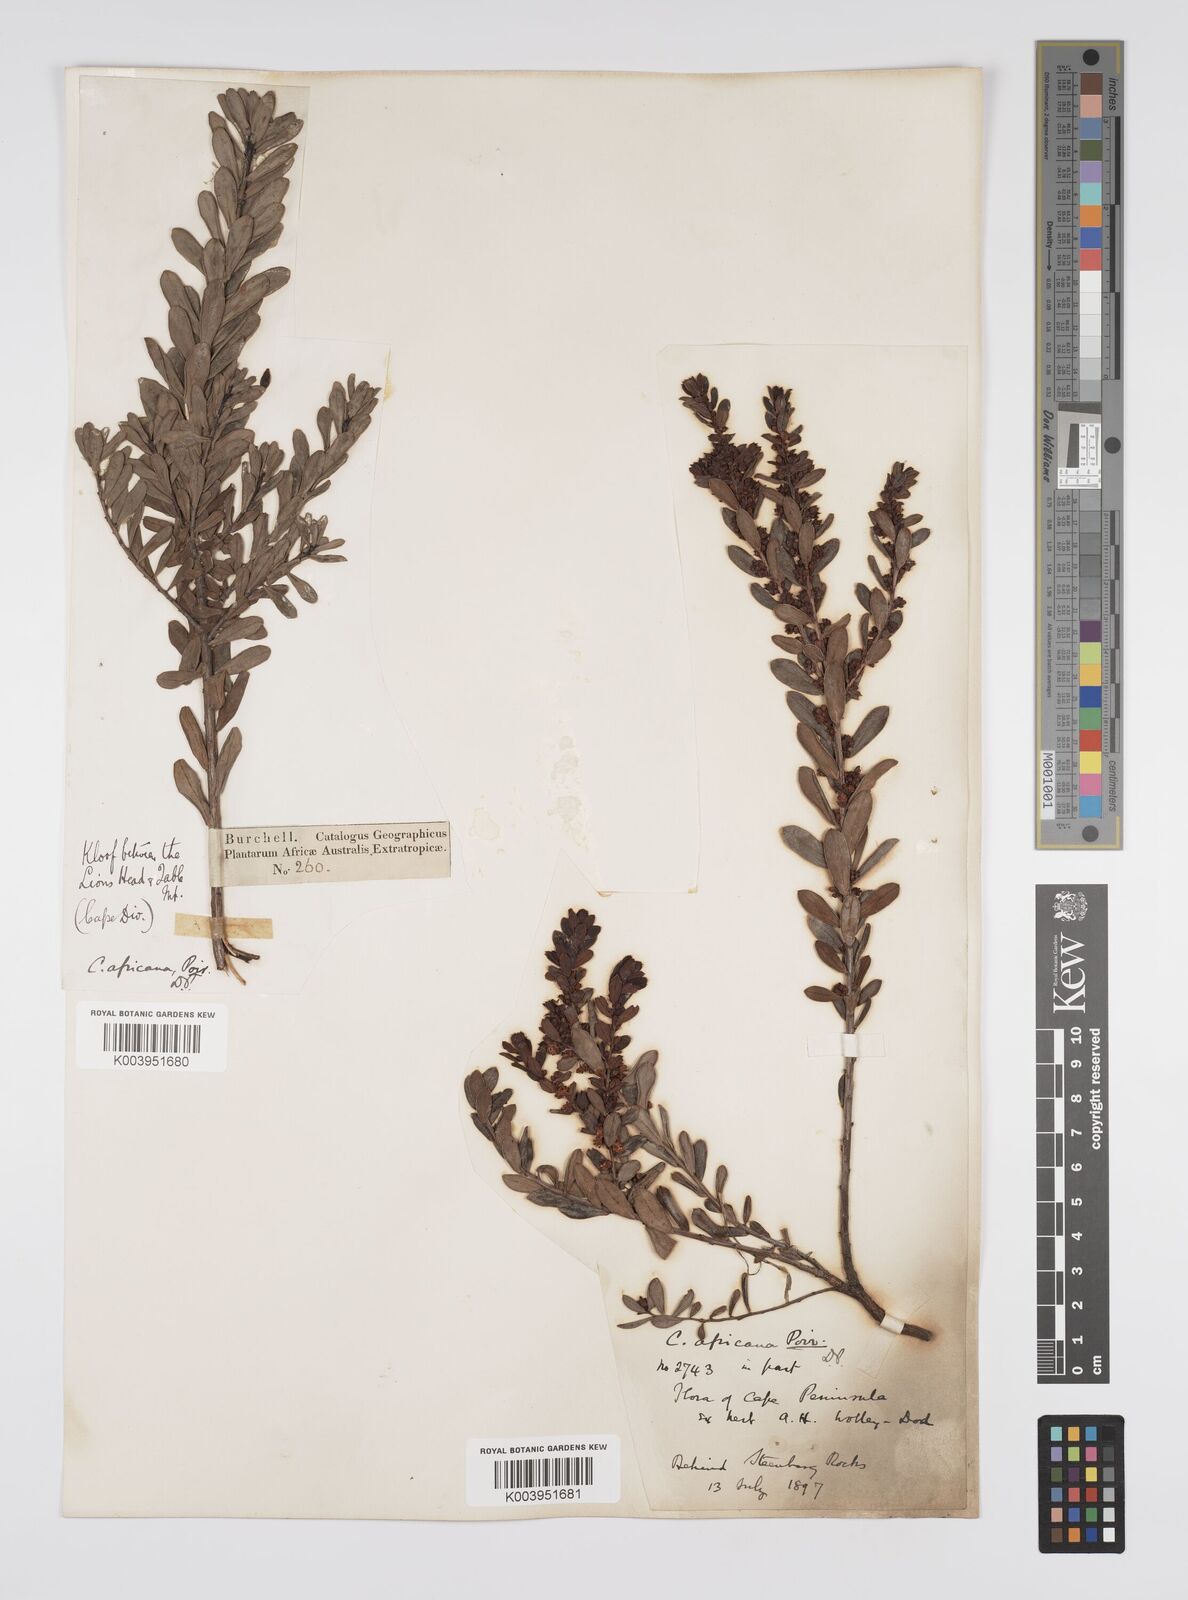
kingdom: Plantae
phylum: Tracheophyta
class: Magnoliopsida
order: Malpighiales
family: Peraceae
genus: Clutia
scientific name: Clutia africana
